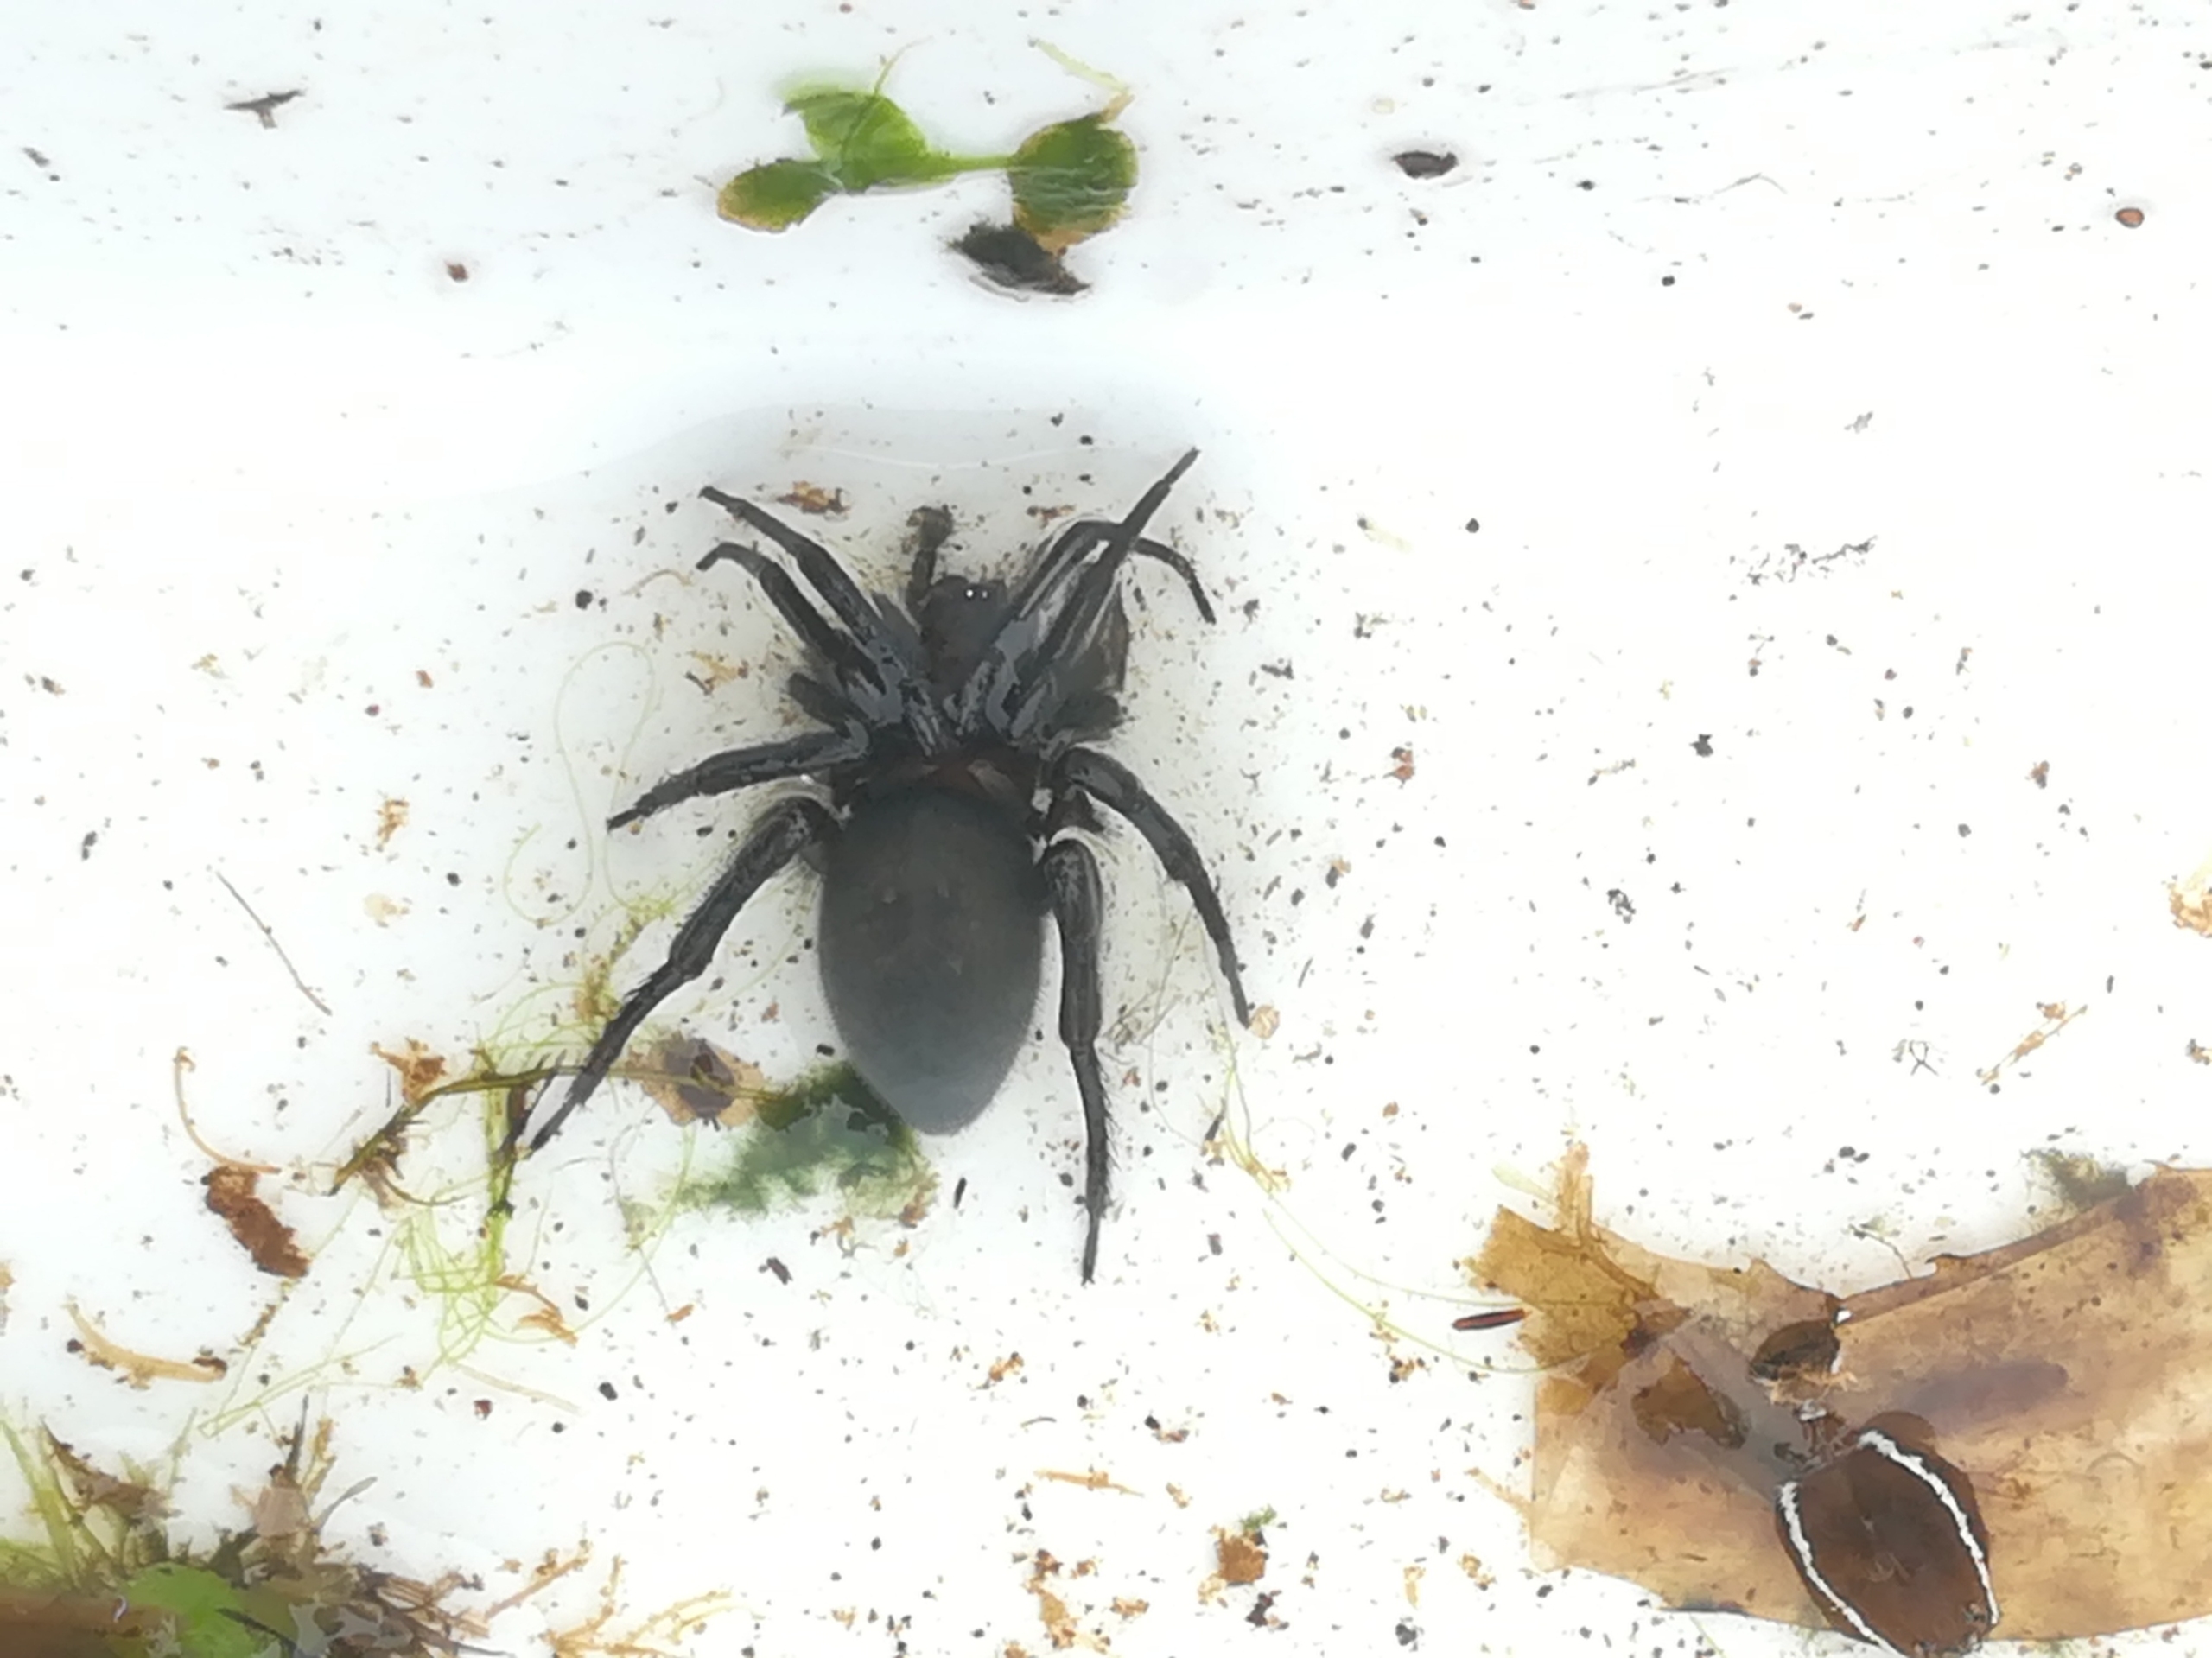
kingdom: Animalia
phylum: Arthropoda
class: Arachnida
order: Araneae
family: Dictynidae
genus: Argyroneta
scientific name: Argyroneta aquatica
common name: Vandedderkop
